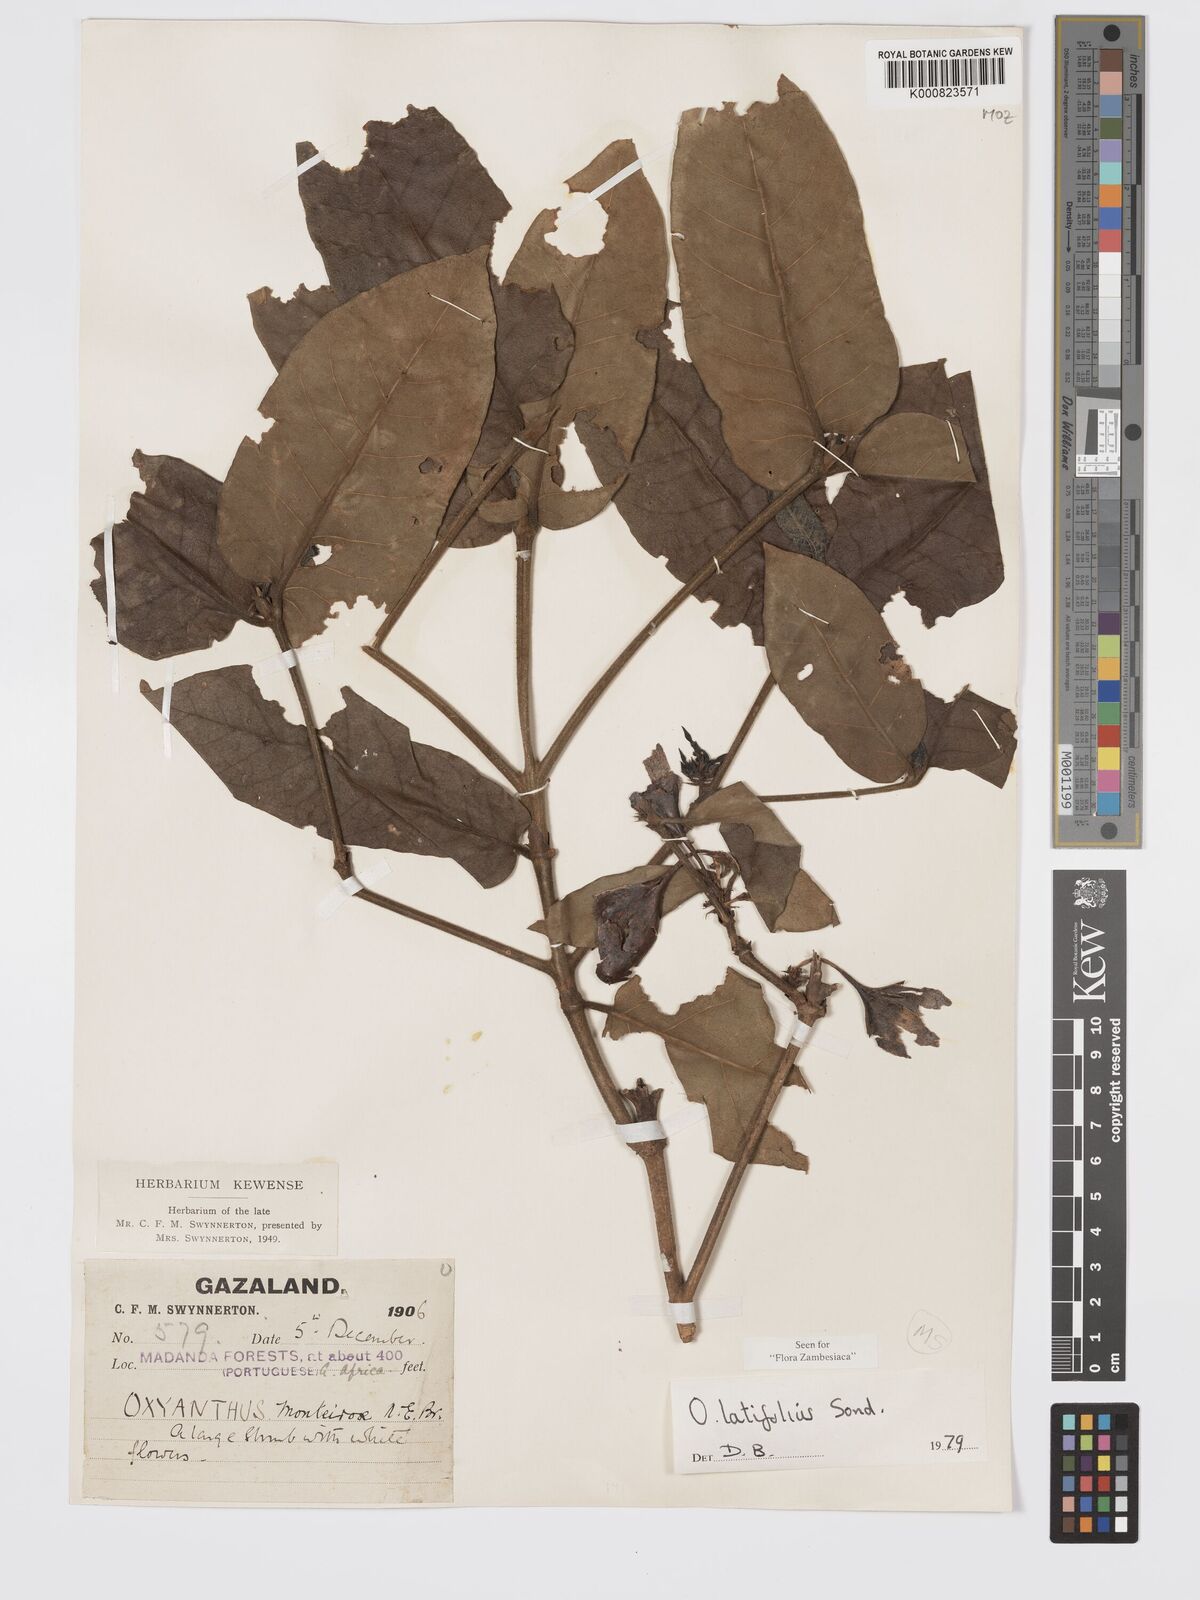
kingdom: Plantae
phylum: Tracheophyta
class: Magnoliopsida
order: Gentianales
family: Rubiaceae
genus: Oxyanthus
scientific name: Oxyanthus latifolius
